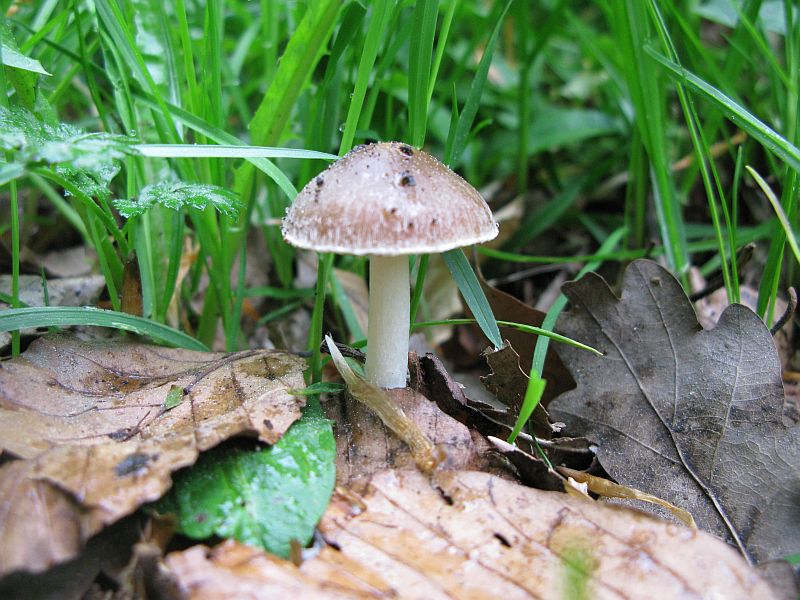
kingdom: Fungi
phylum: Basidiomycota
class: Agaricomycetes
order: Agaricales
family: Psathyrellaceae
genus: Psathyrella
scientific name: Psathyrella spadiceogrisea
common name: gråbrun mørkhat
